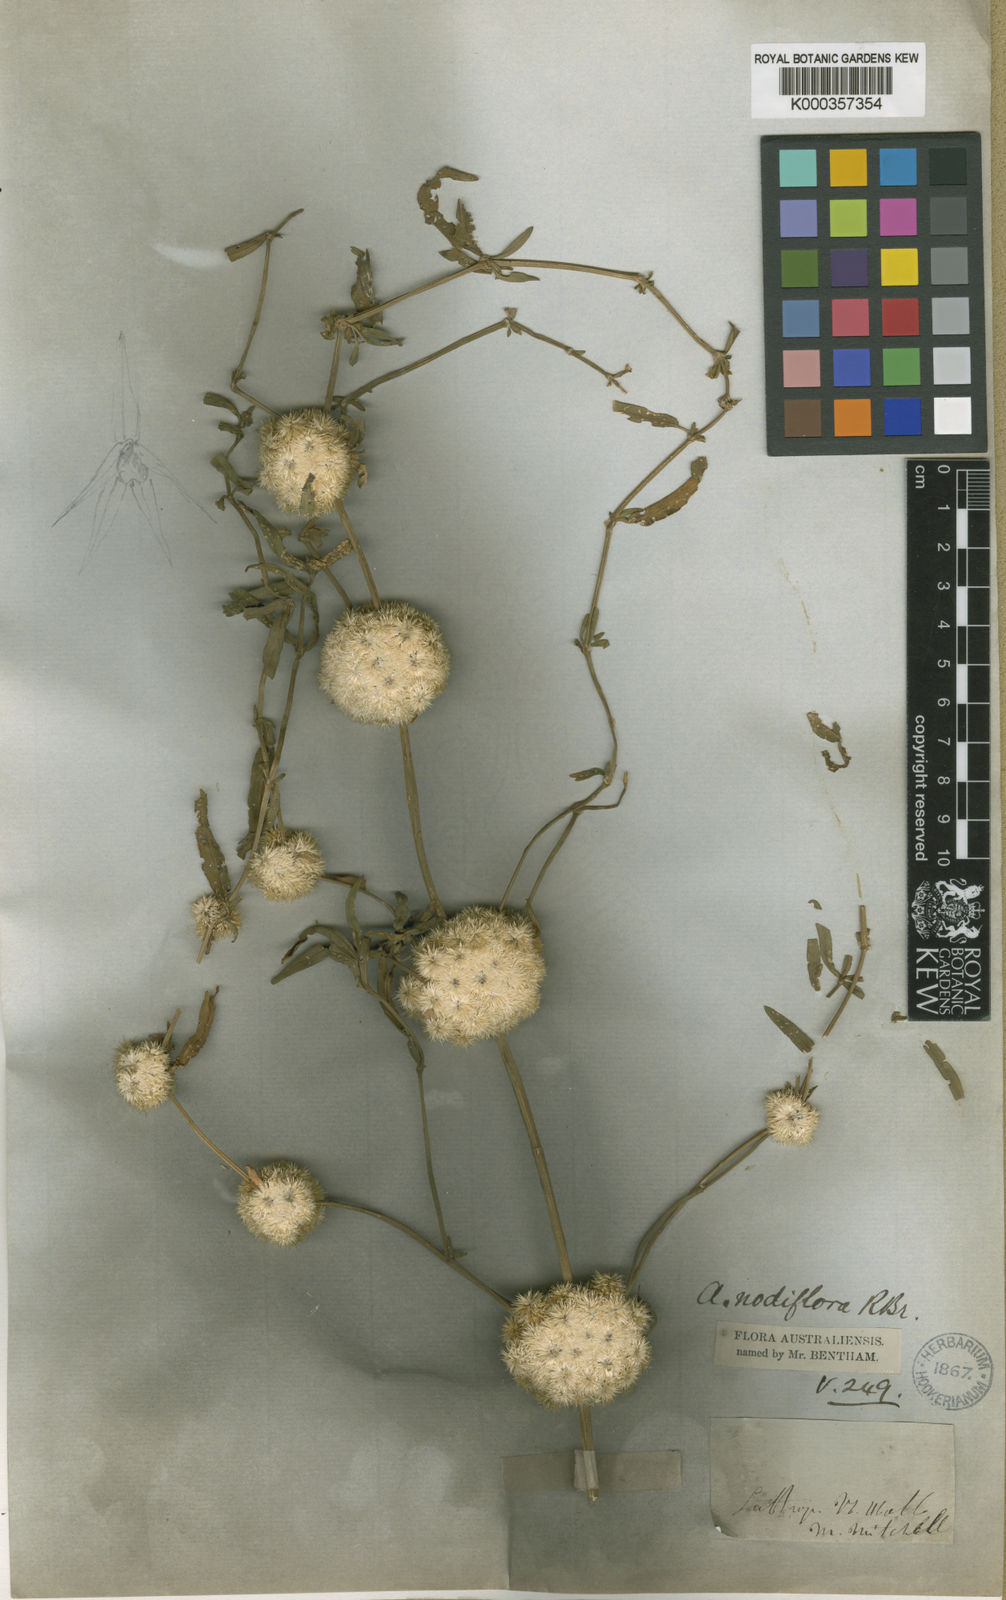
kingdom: Plantae
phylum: Tracheophyta
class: Magnoliopsida
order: Caryophyllales
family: Amaranthaceae
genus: Alternanthera
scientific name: Alternanthera sessilis
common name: Sessile joyweed
